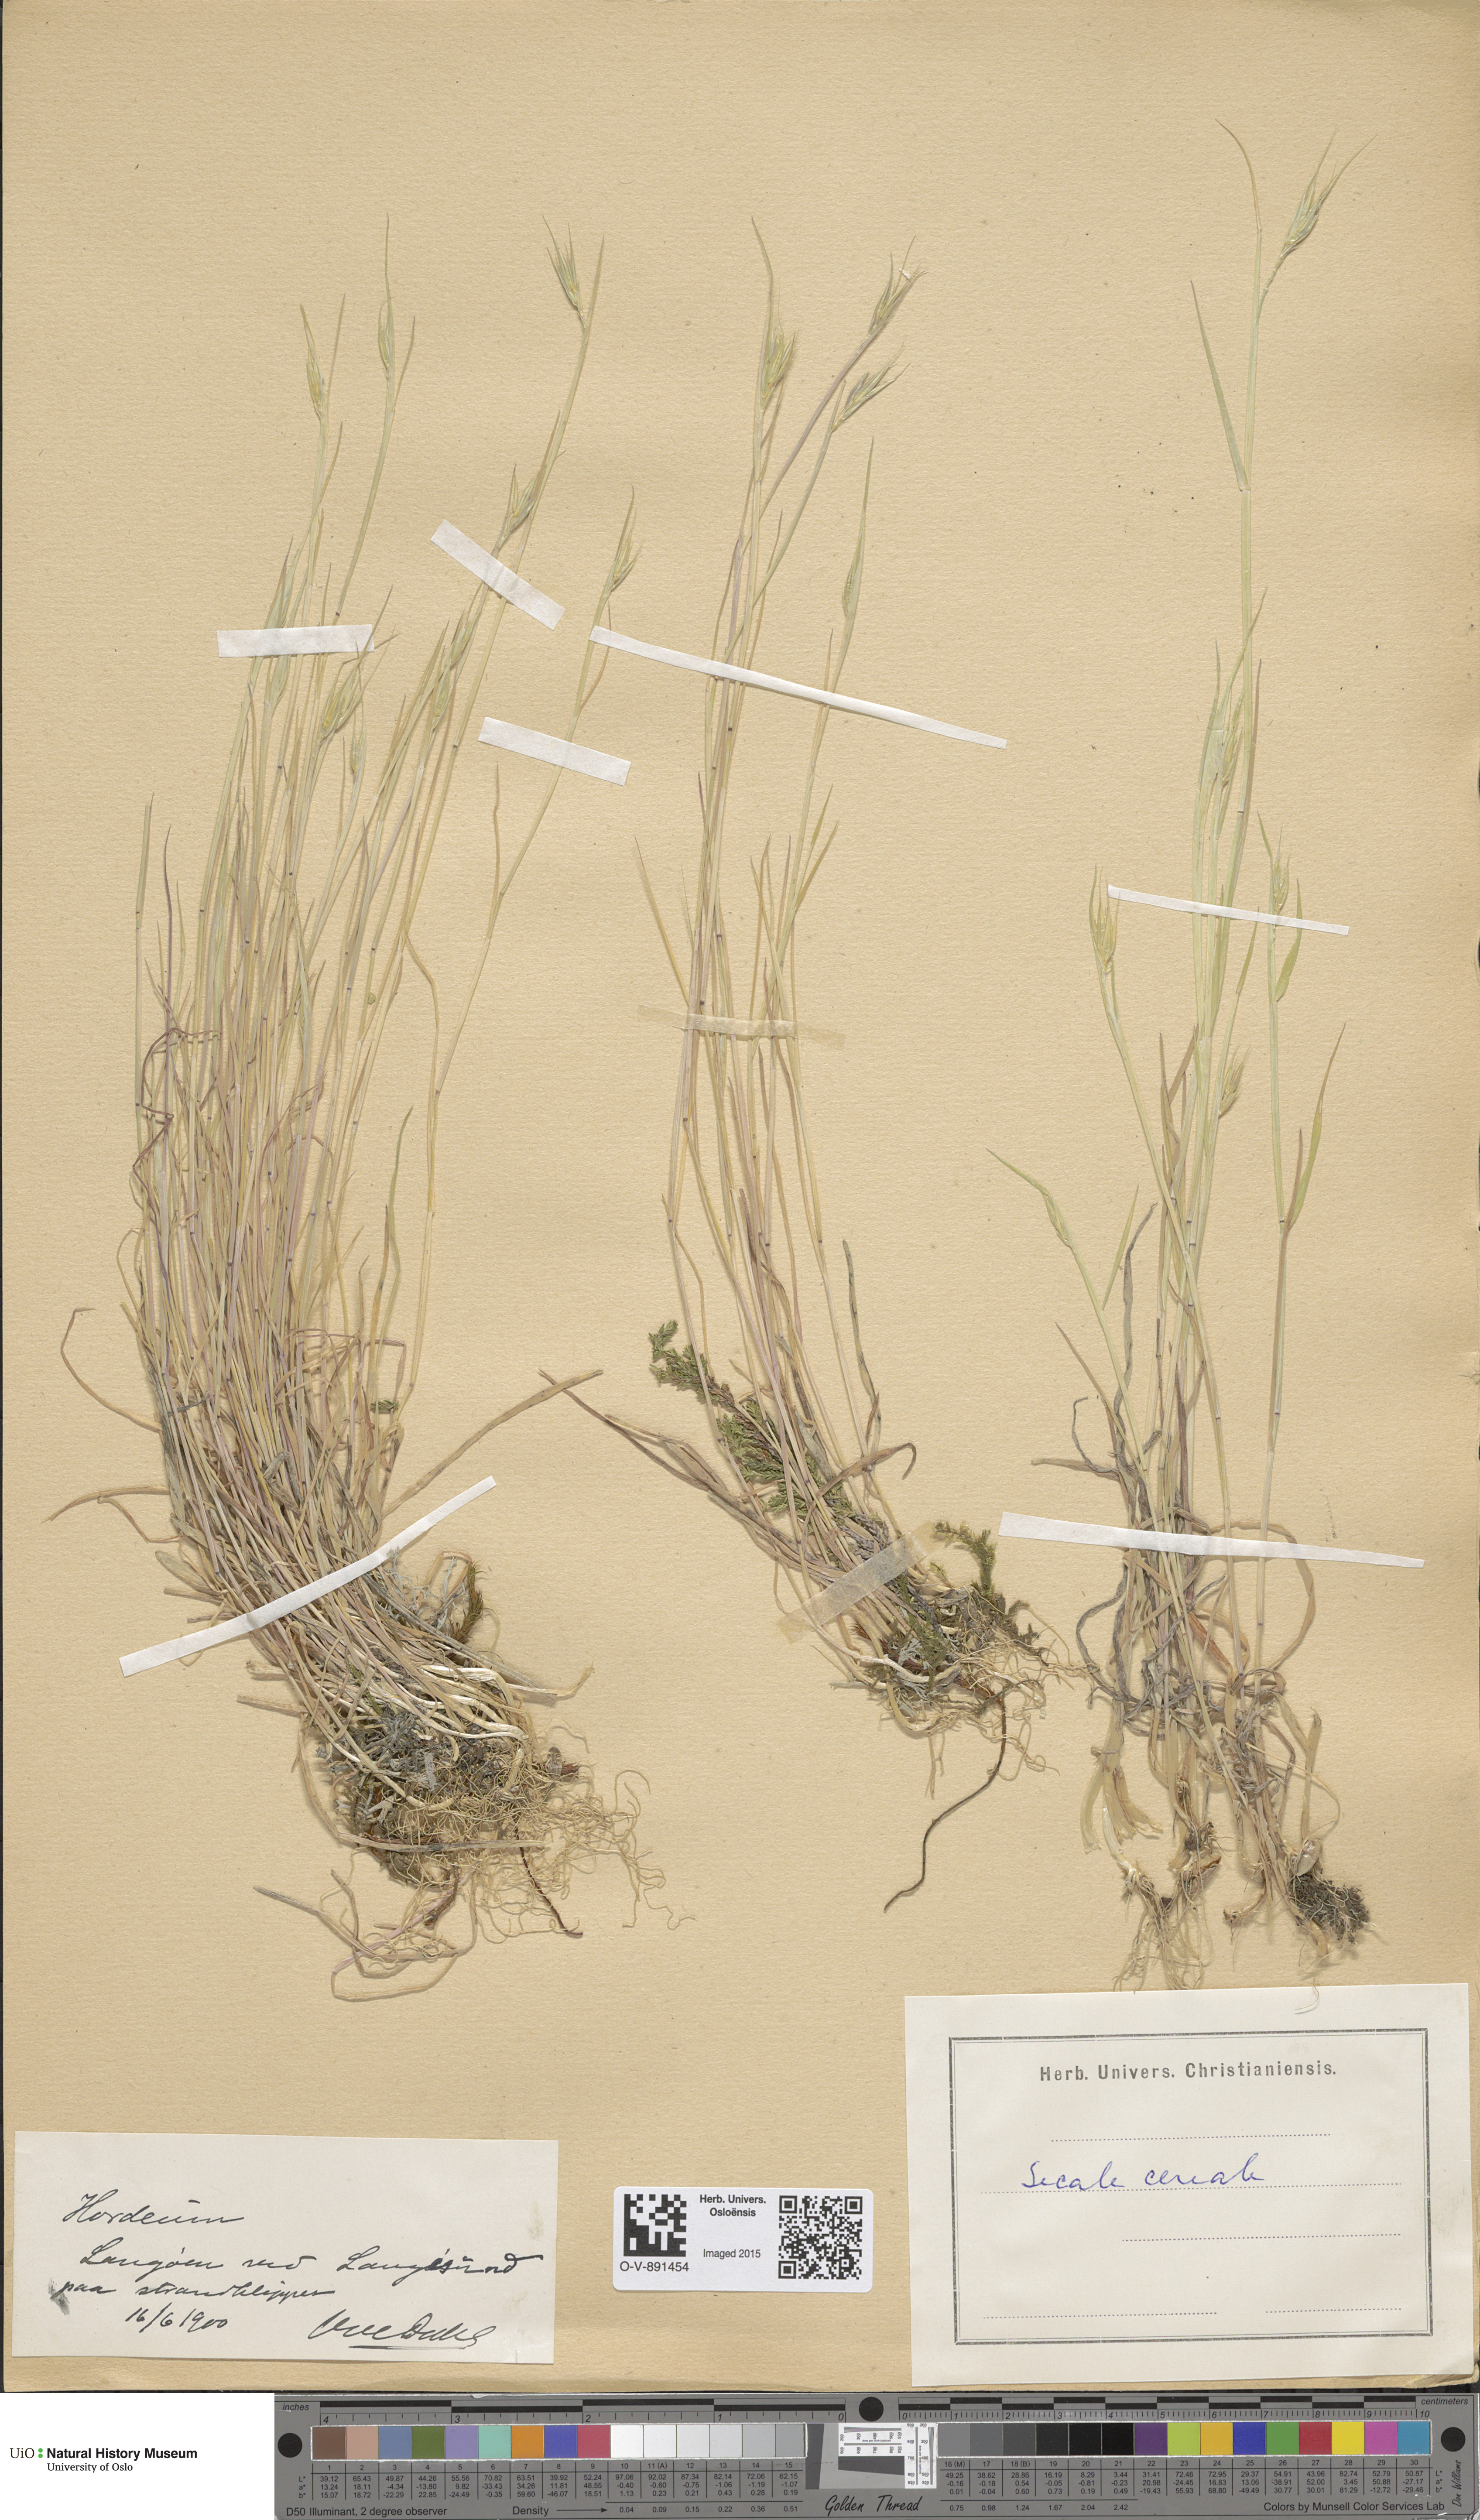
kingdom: Plantae
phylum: Tracheophyta
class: Liliopsida
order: Poales
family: Poaceae
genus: Secale
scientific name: Secale cereale
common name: Rye
